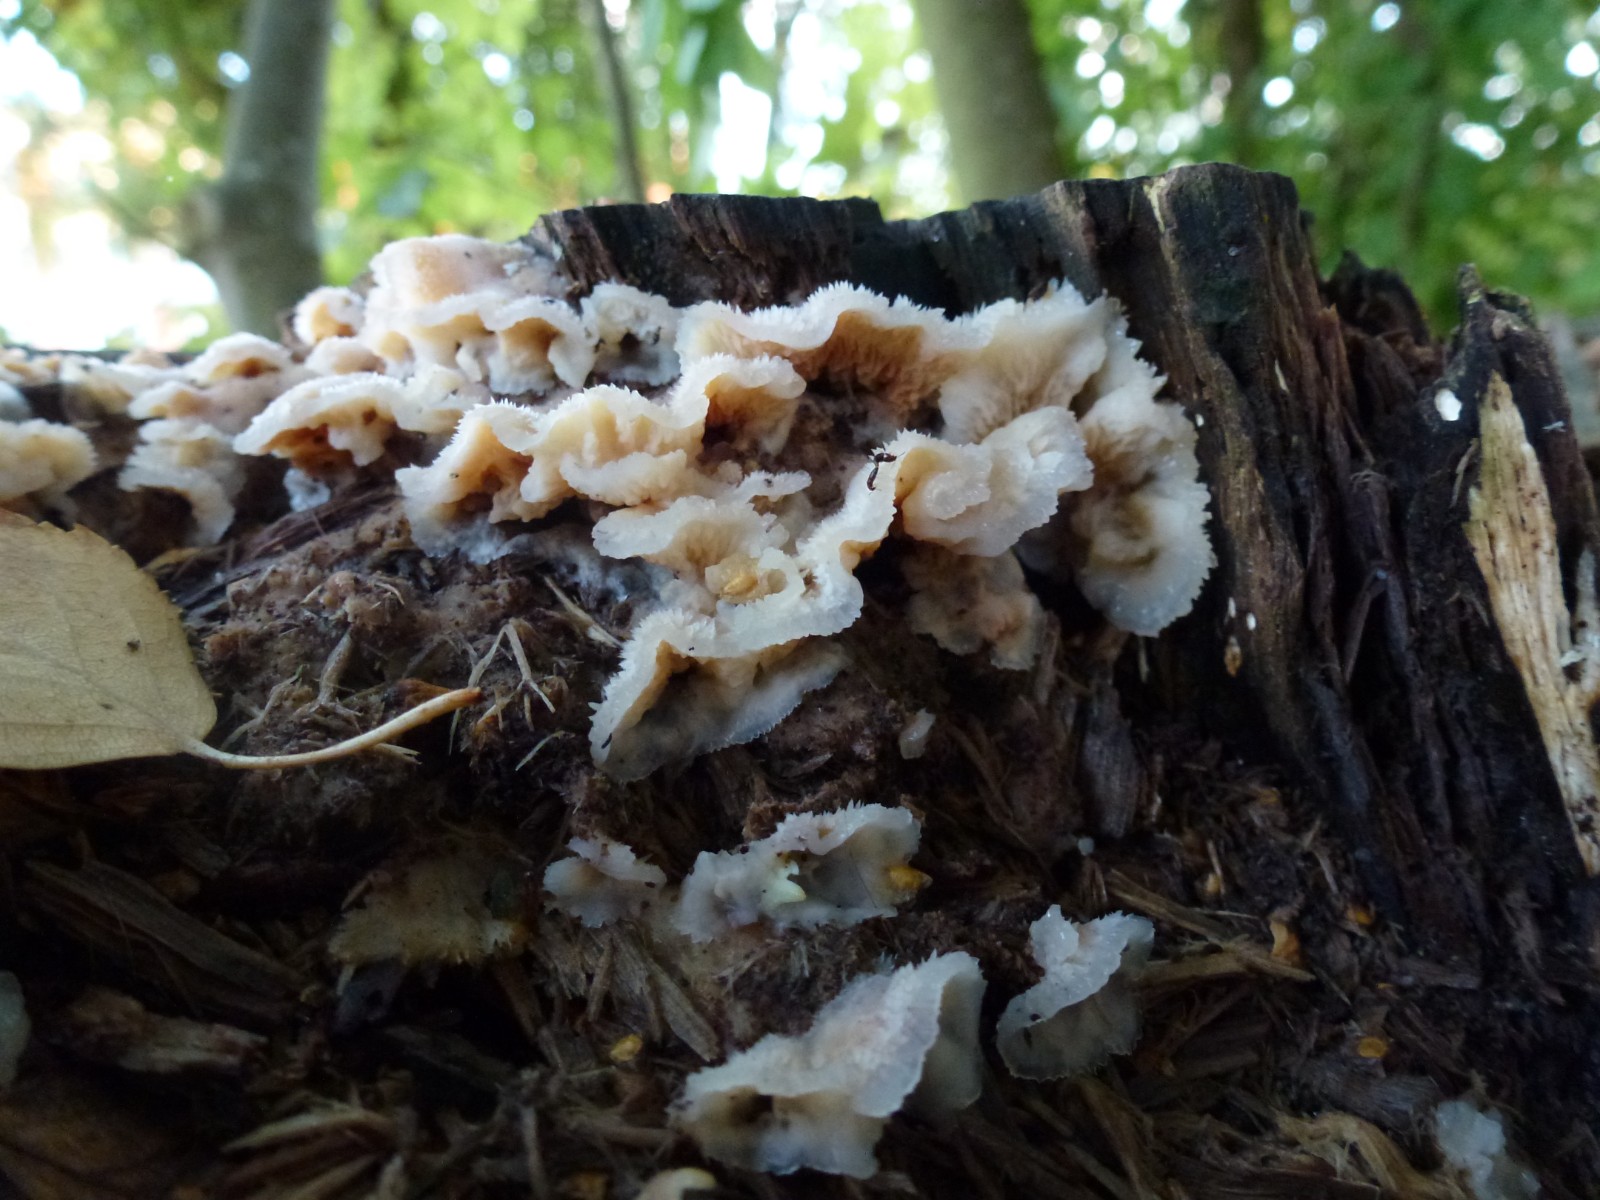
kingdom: Fungi
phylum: Basidiomycota
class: Agaricomycetes
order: Polyporales
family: Meruliaceae
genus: Phlebia
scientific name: Phlebia tremellosa
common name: bævrende åresvamp
